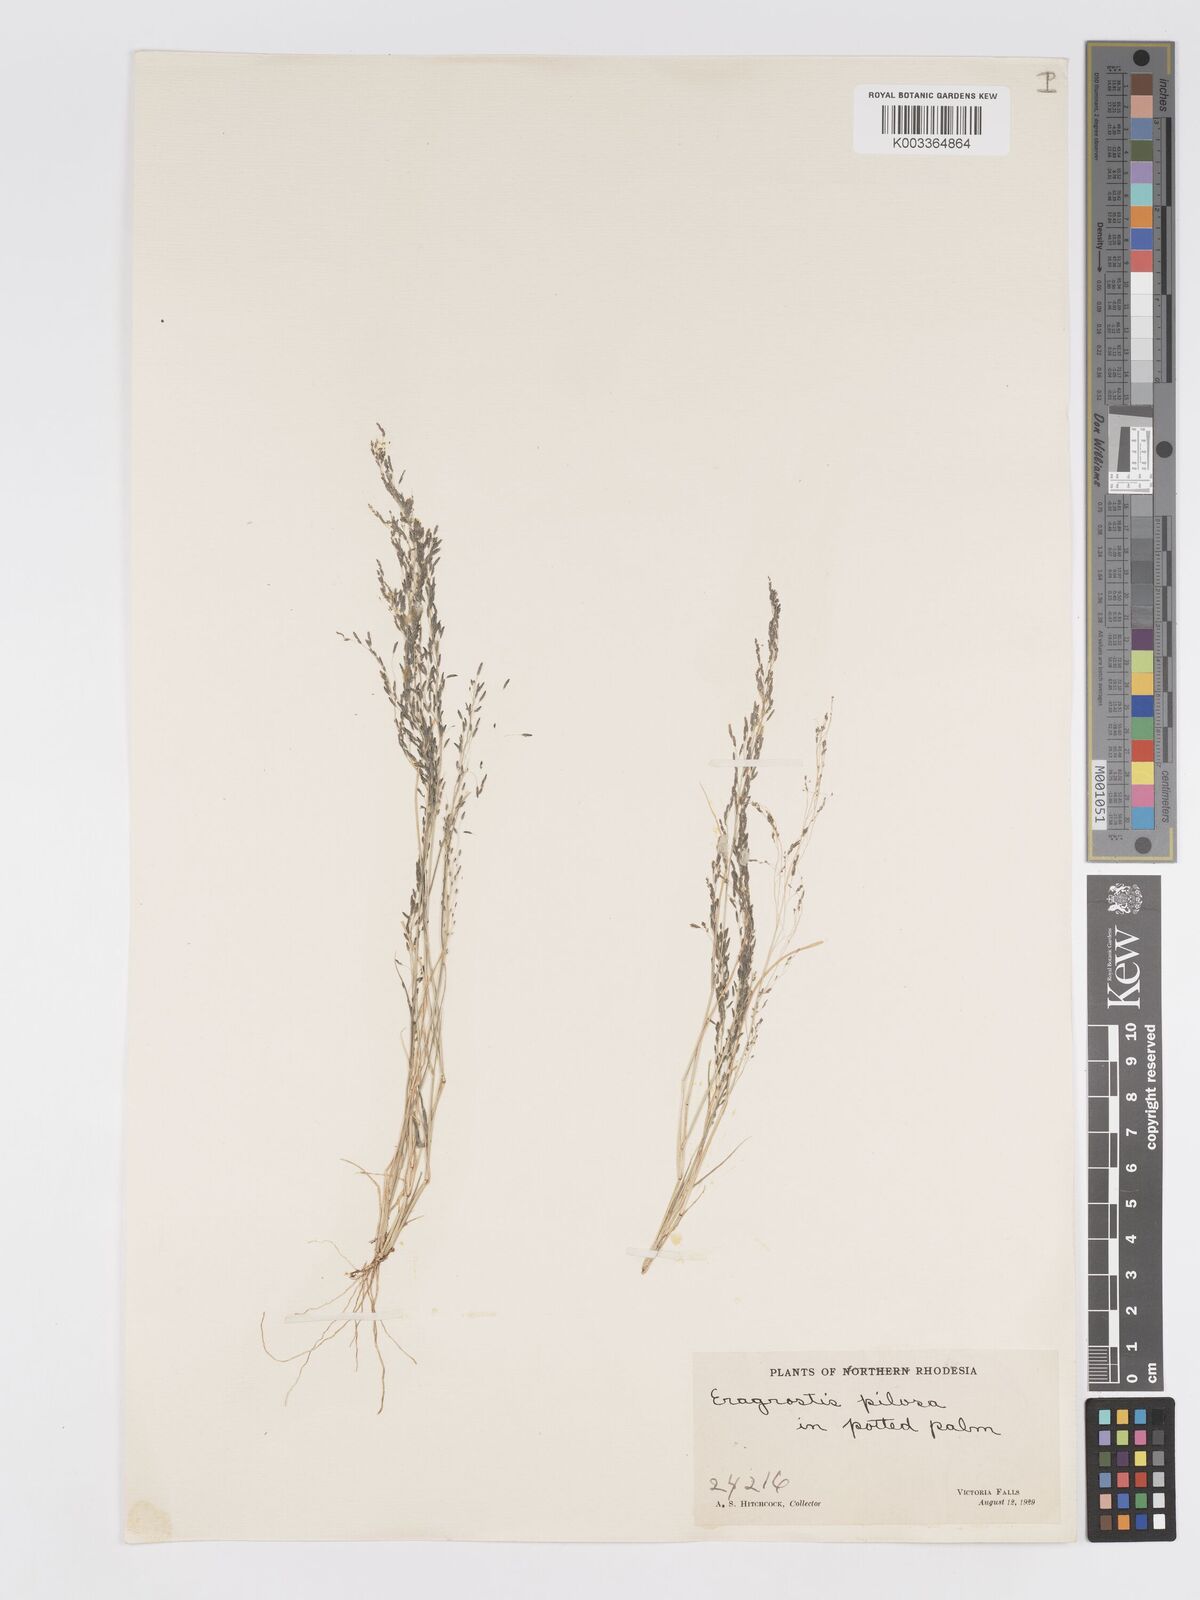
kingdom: Plantae
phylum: Tracheophyta
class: Liliopsida
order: Poales
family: Poaceae
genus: Eragrostis
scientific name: Eragrostis aethiopica
